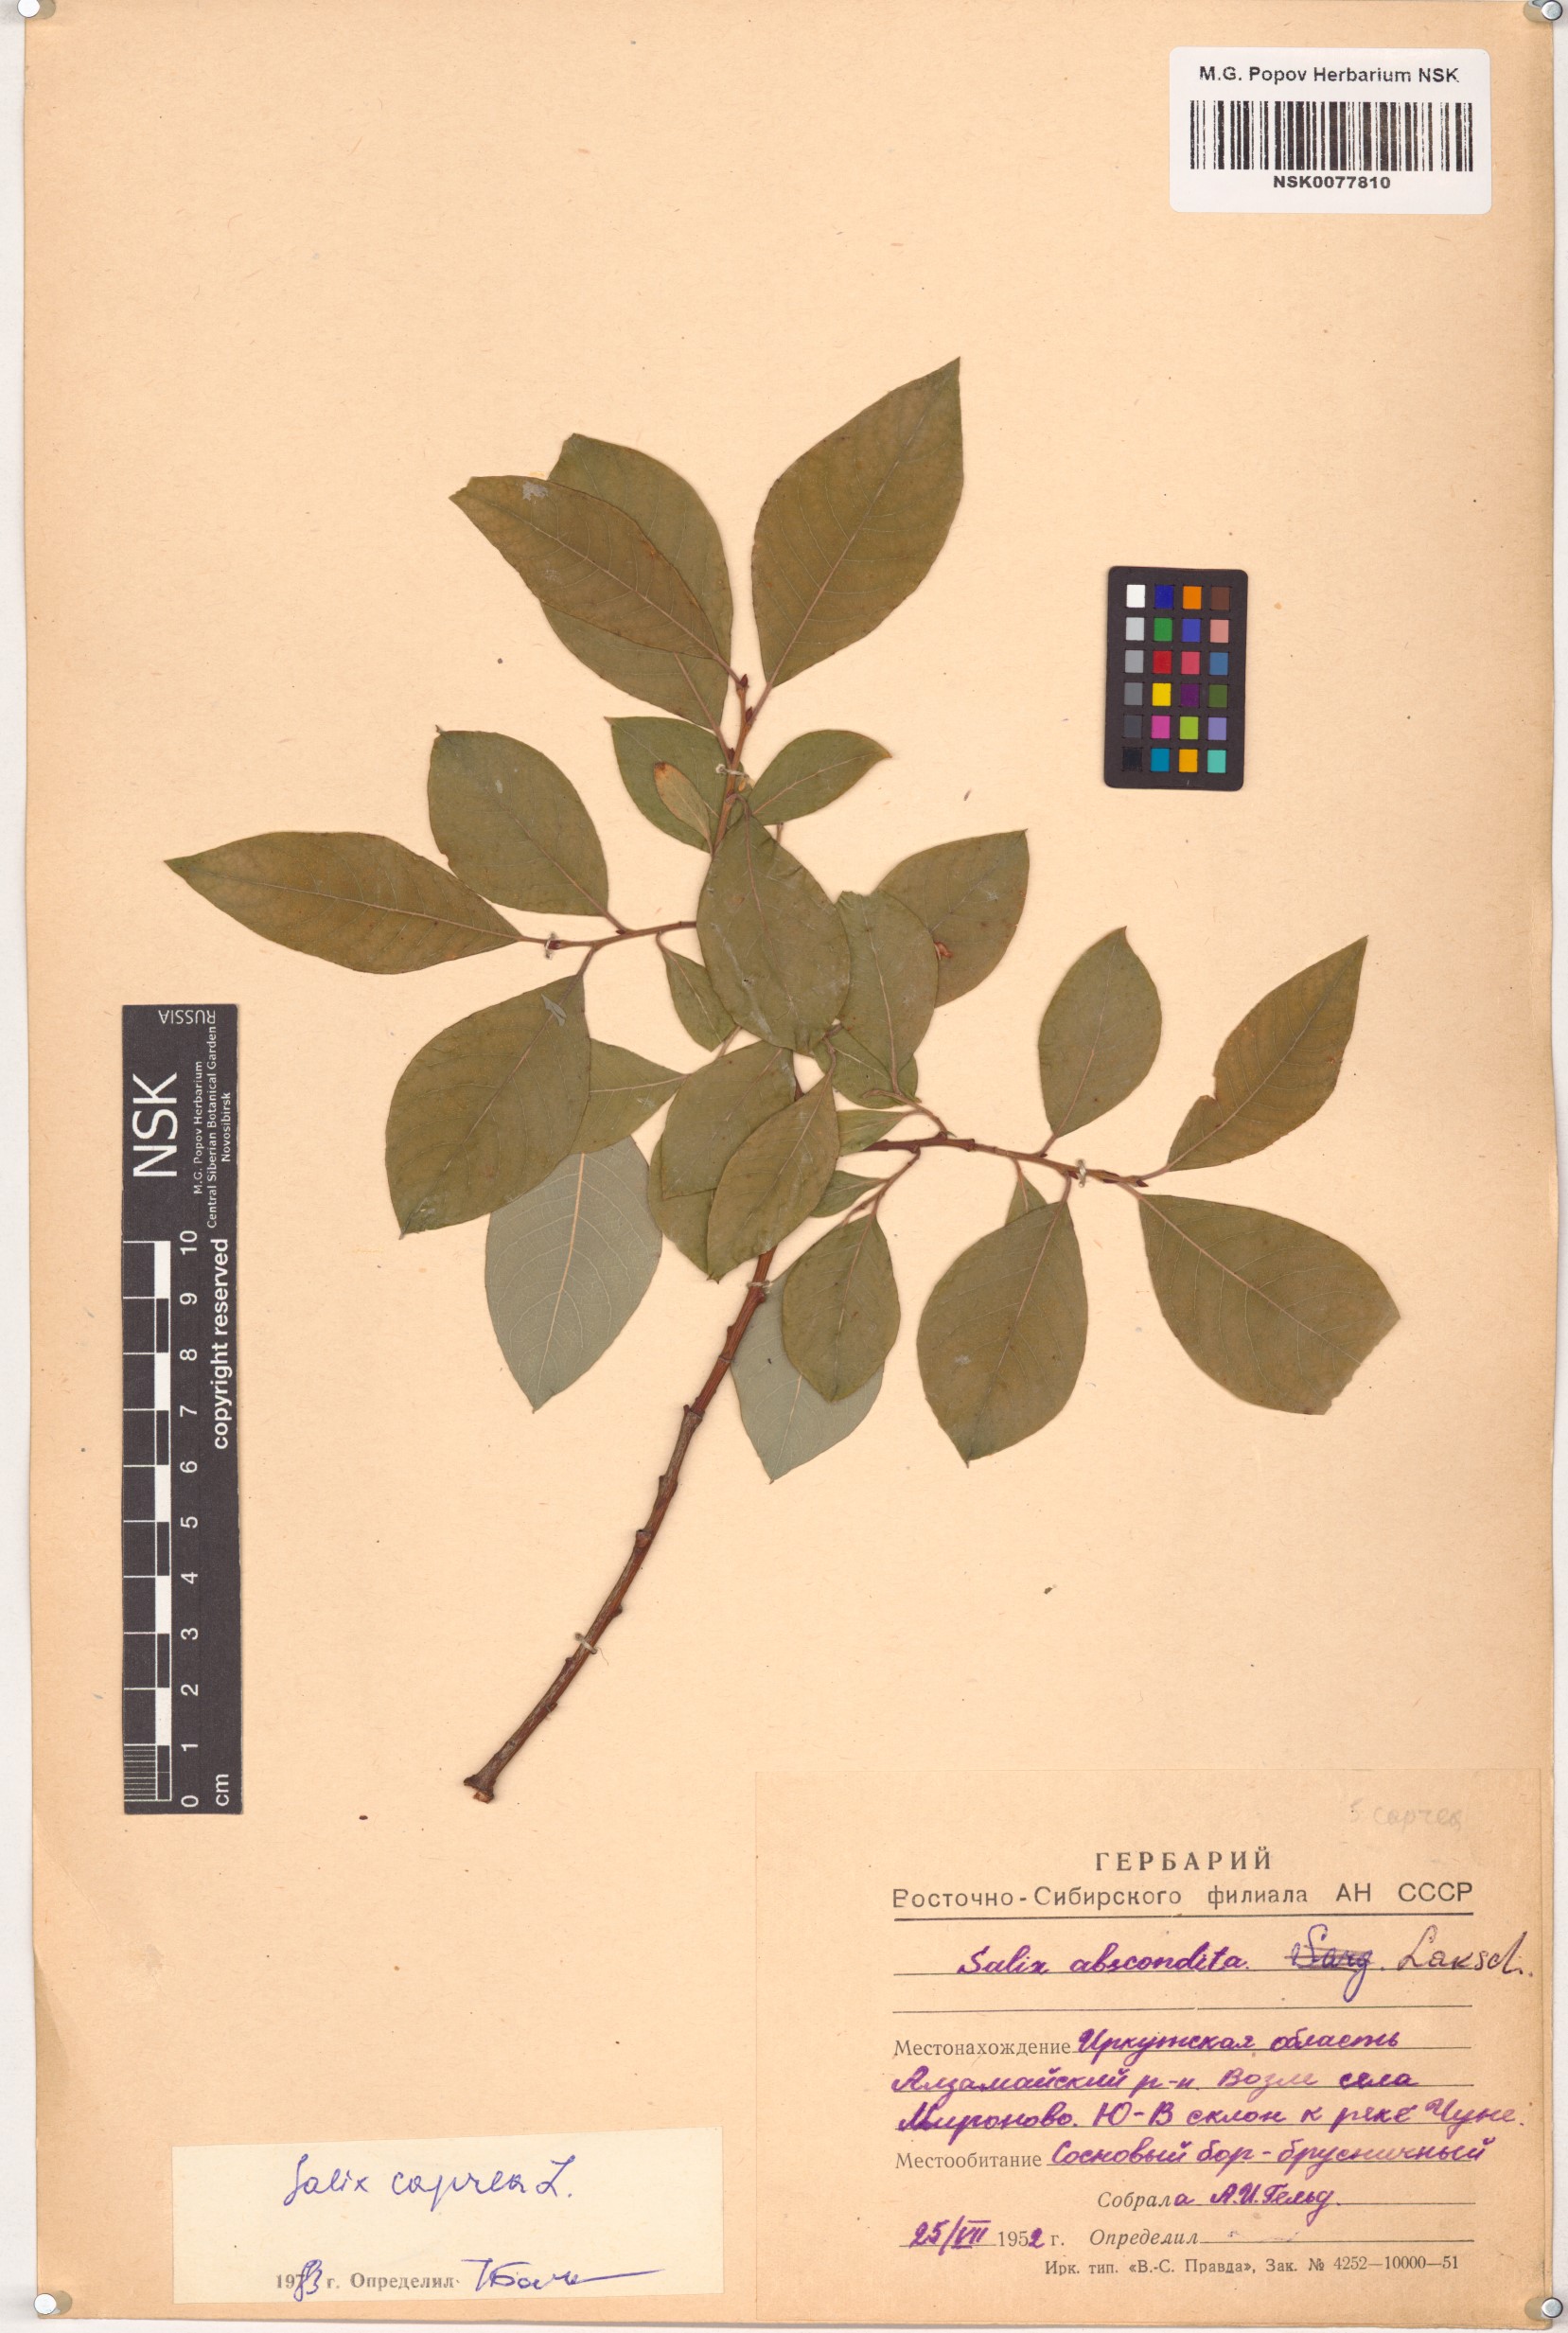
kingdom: Plantae
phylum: Tracheophyta
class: Magnoliopsida
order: Malpighiales
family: Salicaceae
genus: Salix
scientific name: Salix caprea
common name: Goat willow
